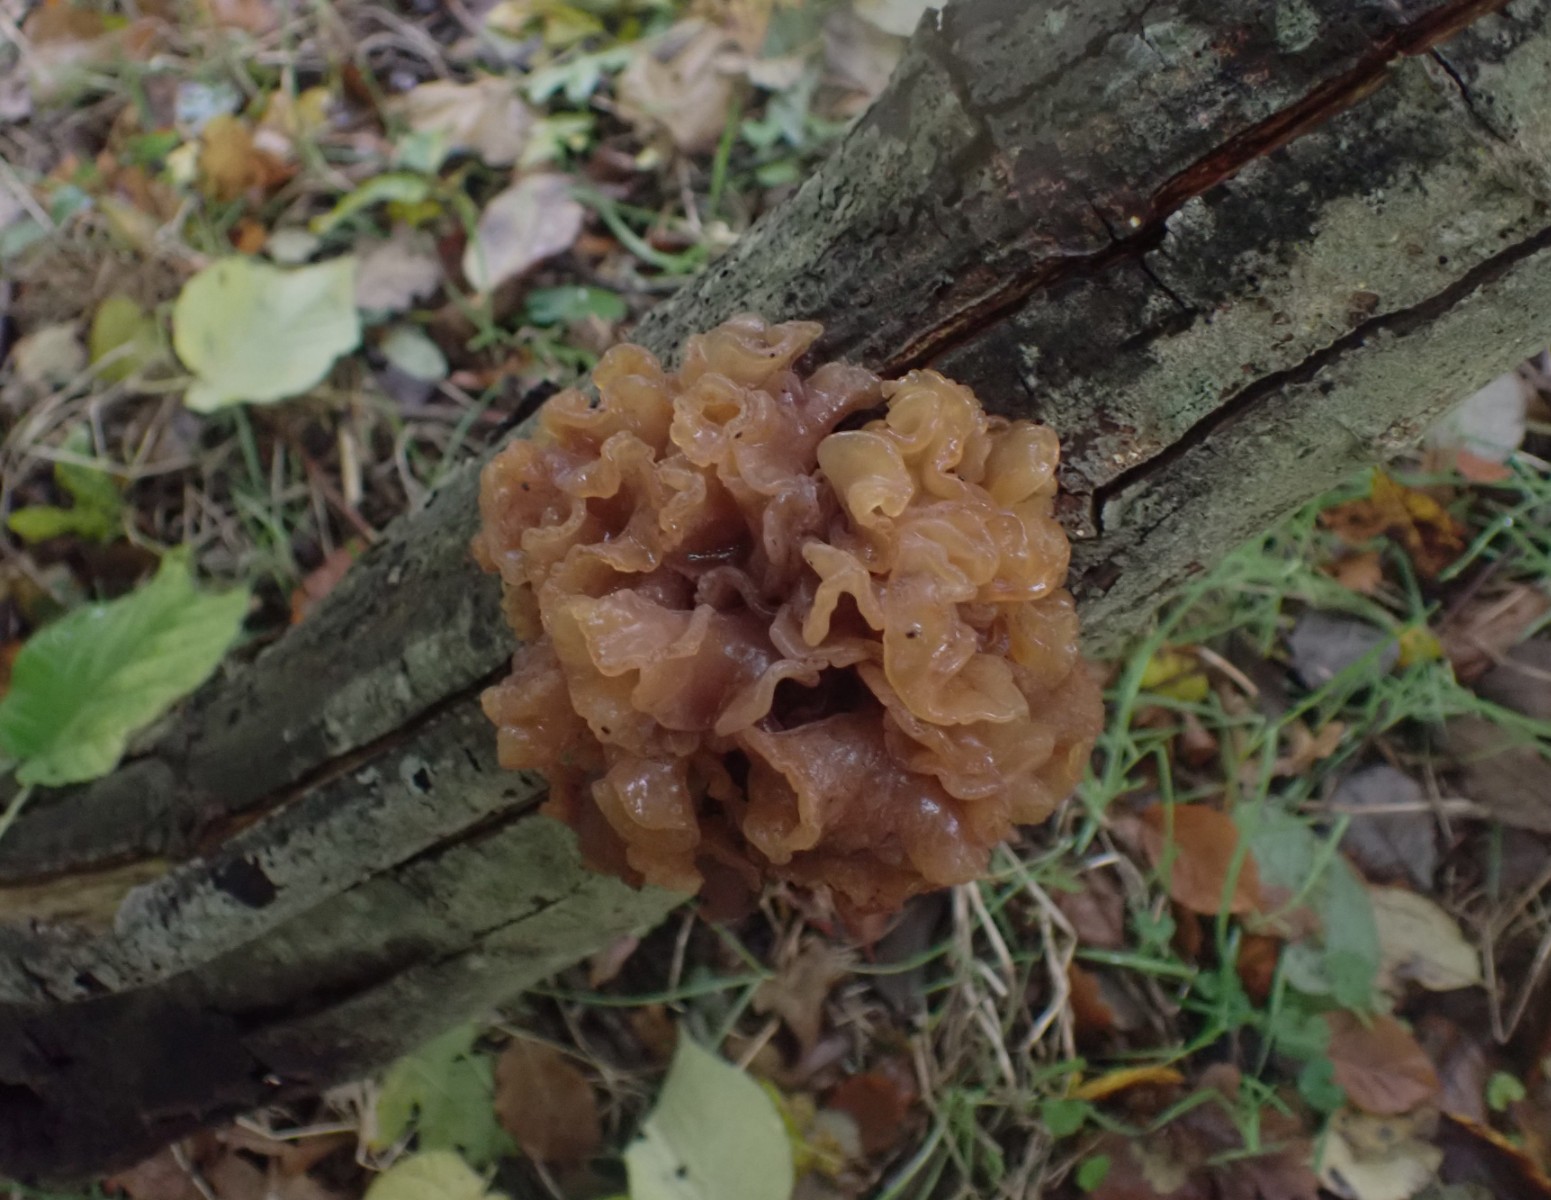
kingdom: Fungi
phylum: Basidiomycota
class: Tremellomycetes
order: Tremellales
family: Tremellaceae
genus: Phaeotremella
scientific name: Phaeotremella frondosa
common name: kæmpe-bævresvamp
